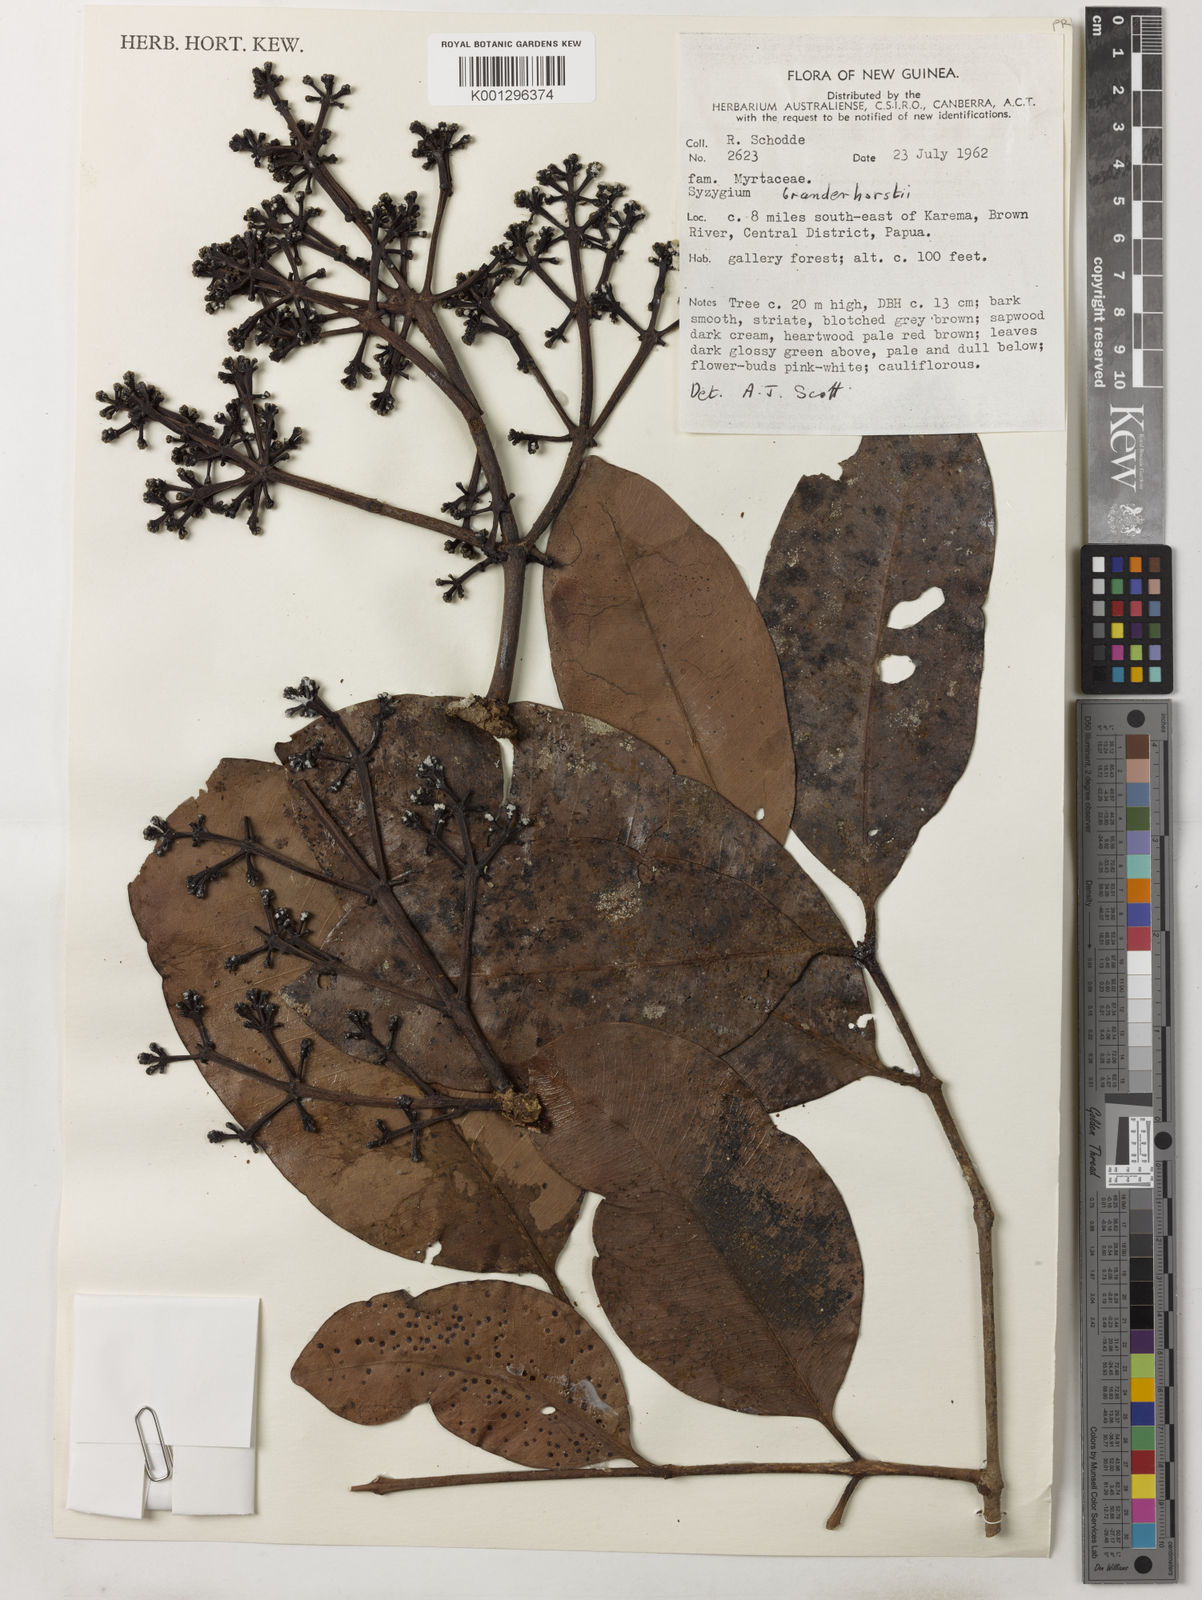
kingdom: Plantae
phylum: Tracheophyta
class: Magnoliopsida
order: Myrtales
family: Myrtaceae
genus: Syzygium
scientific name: Syzygium branderhorstii
